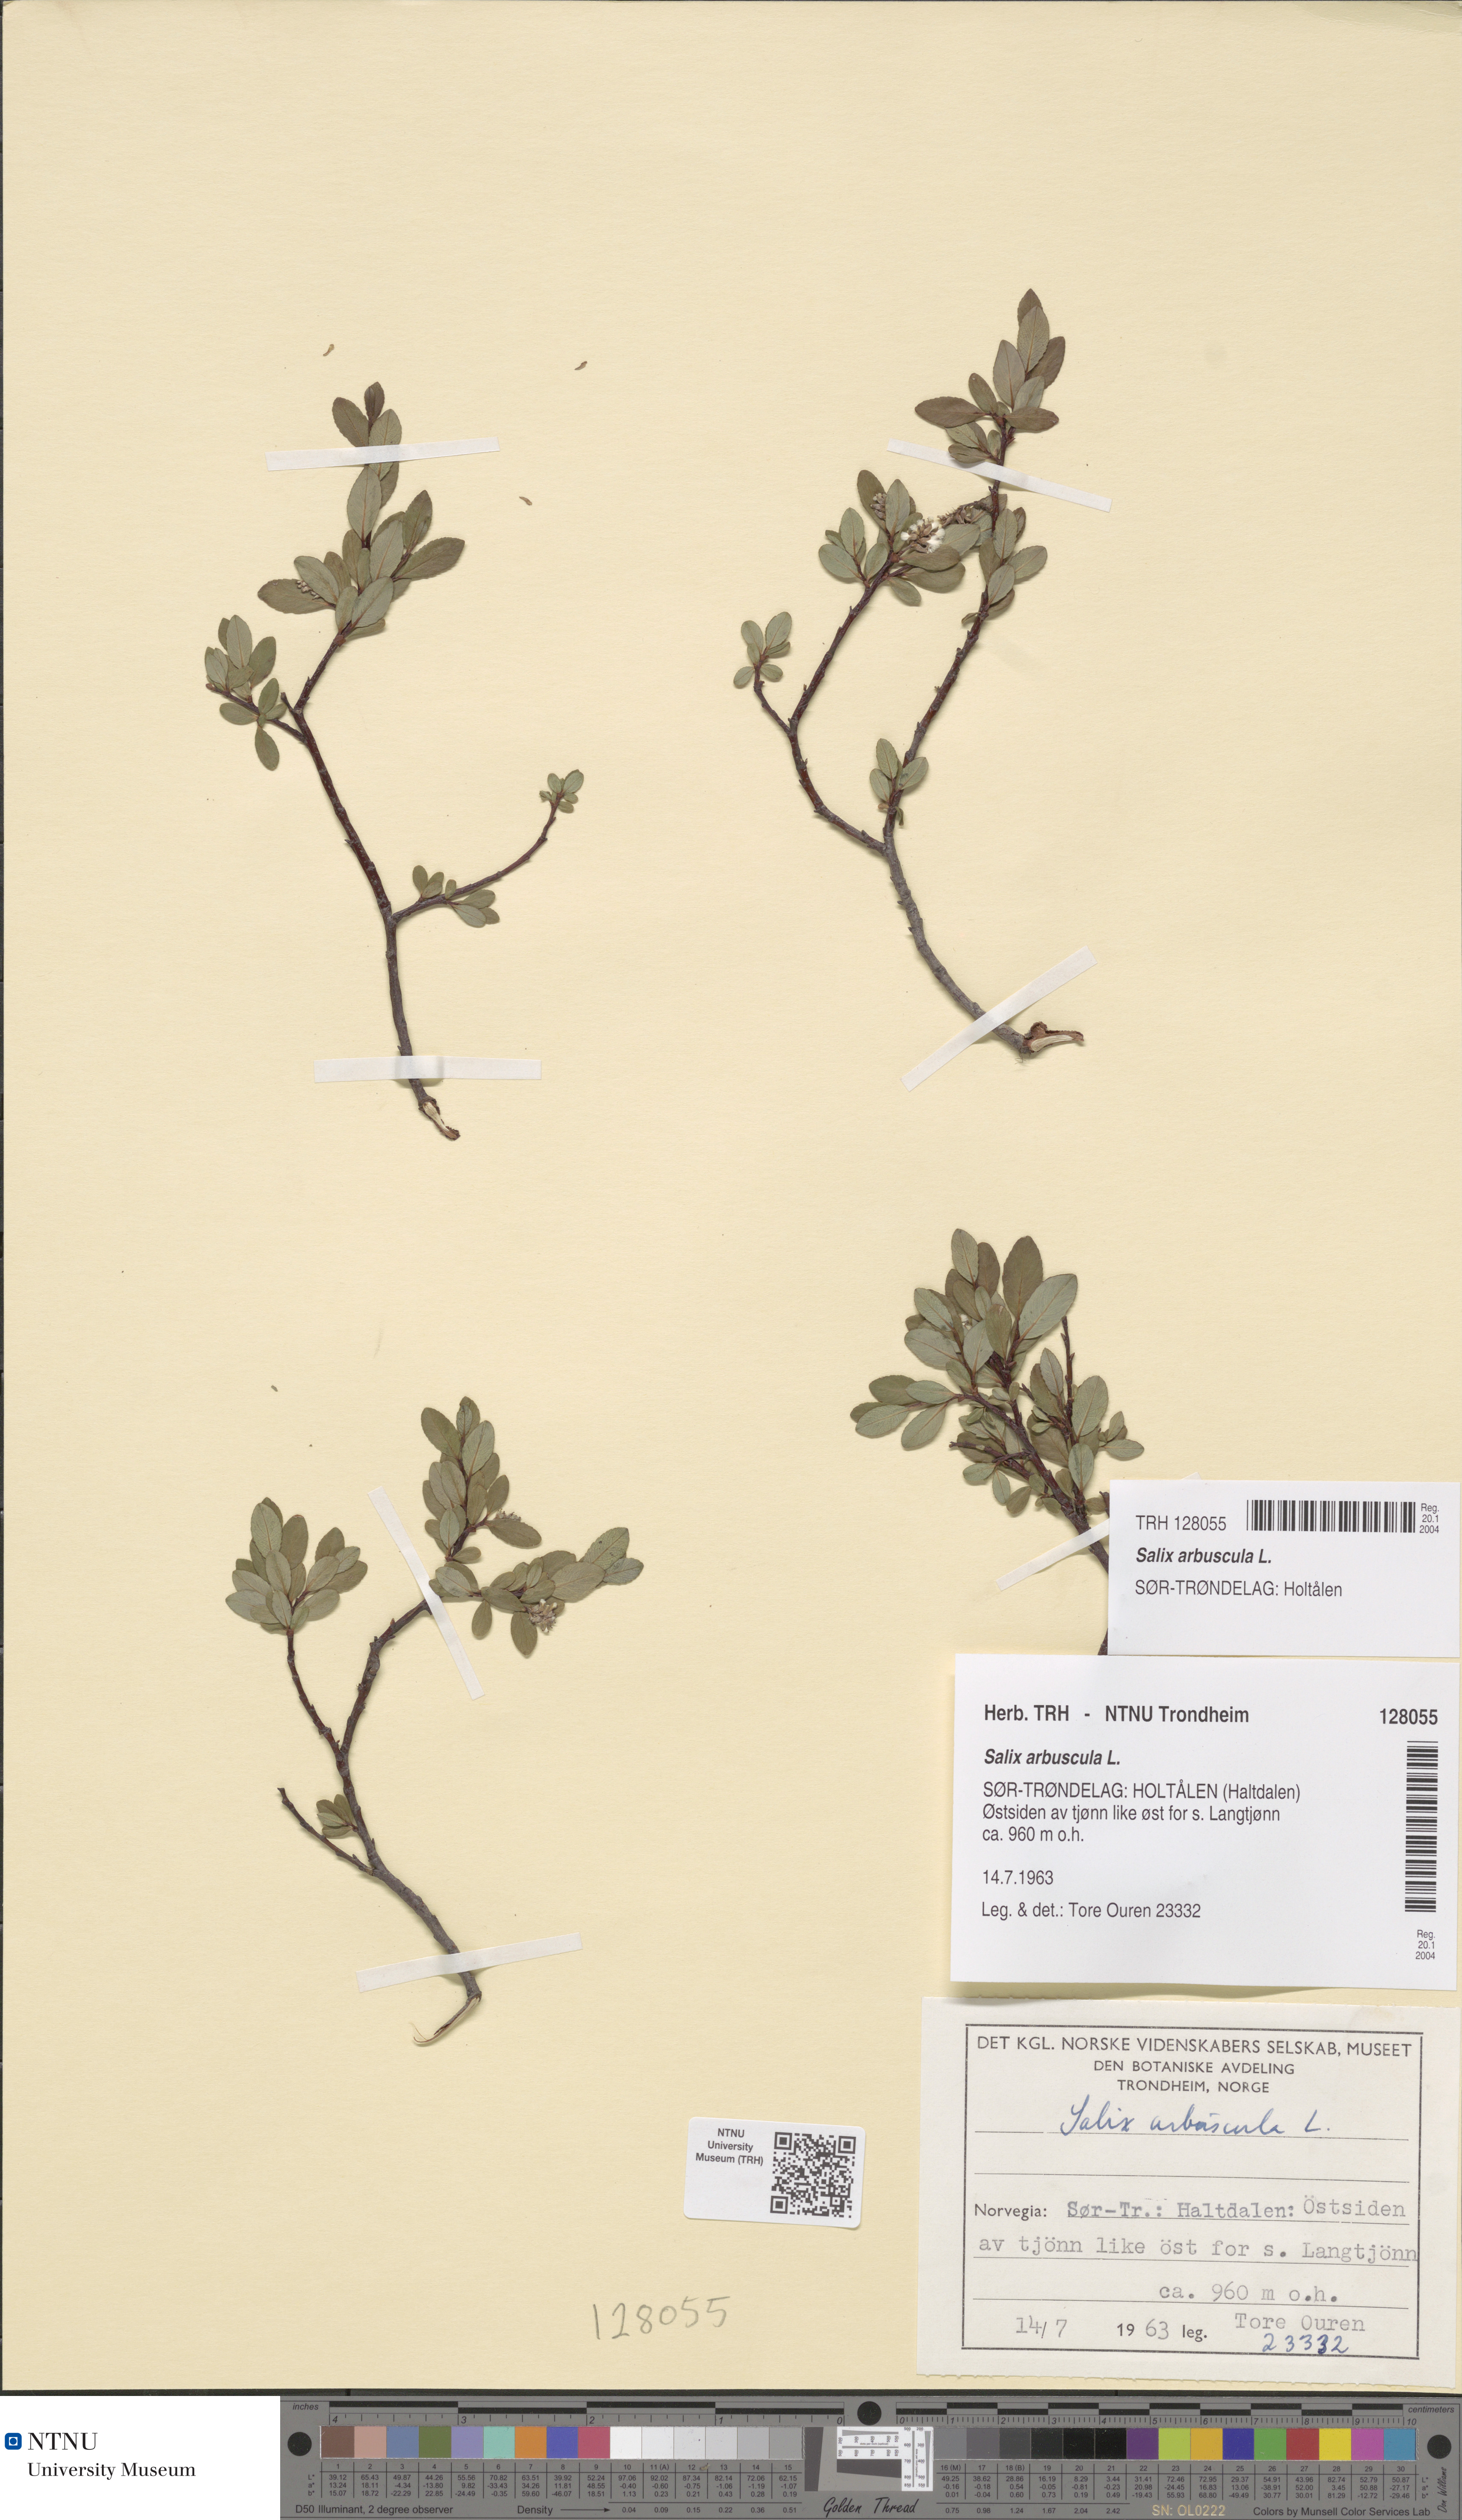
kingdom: Plantae
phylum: Tracheophyta
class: Magnoliopsida
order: Malpighiales
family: Salicaceae
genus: Salix
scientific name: Salix arbuscula
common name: Mountain willow
